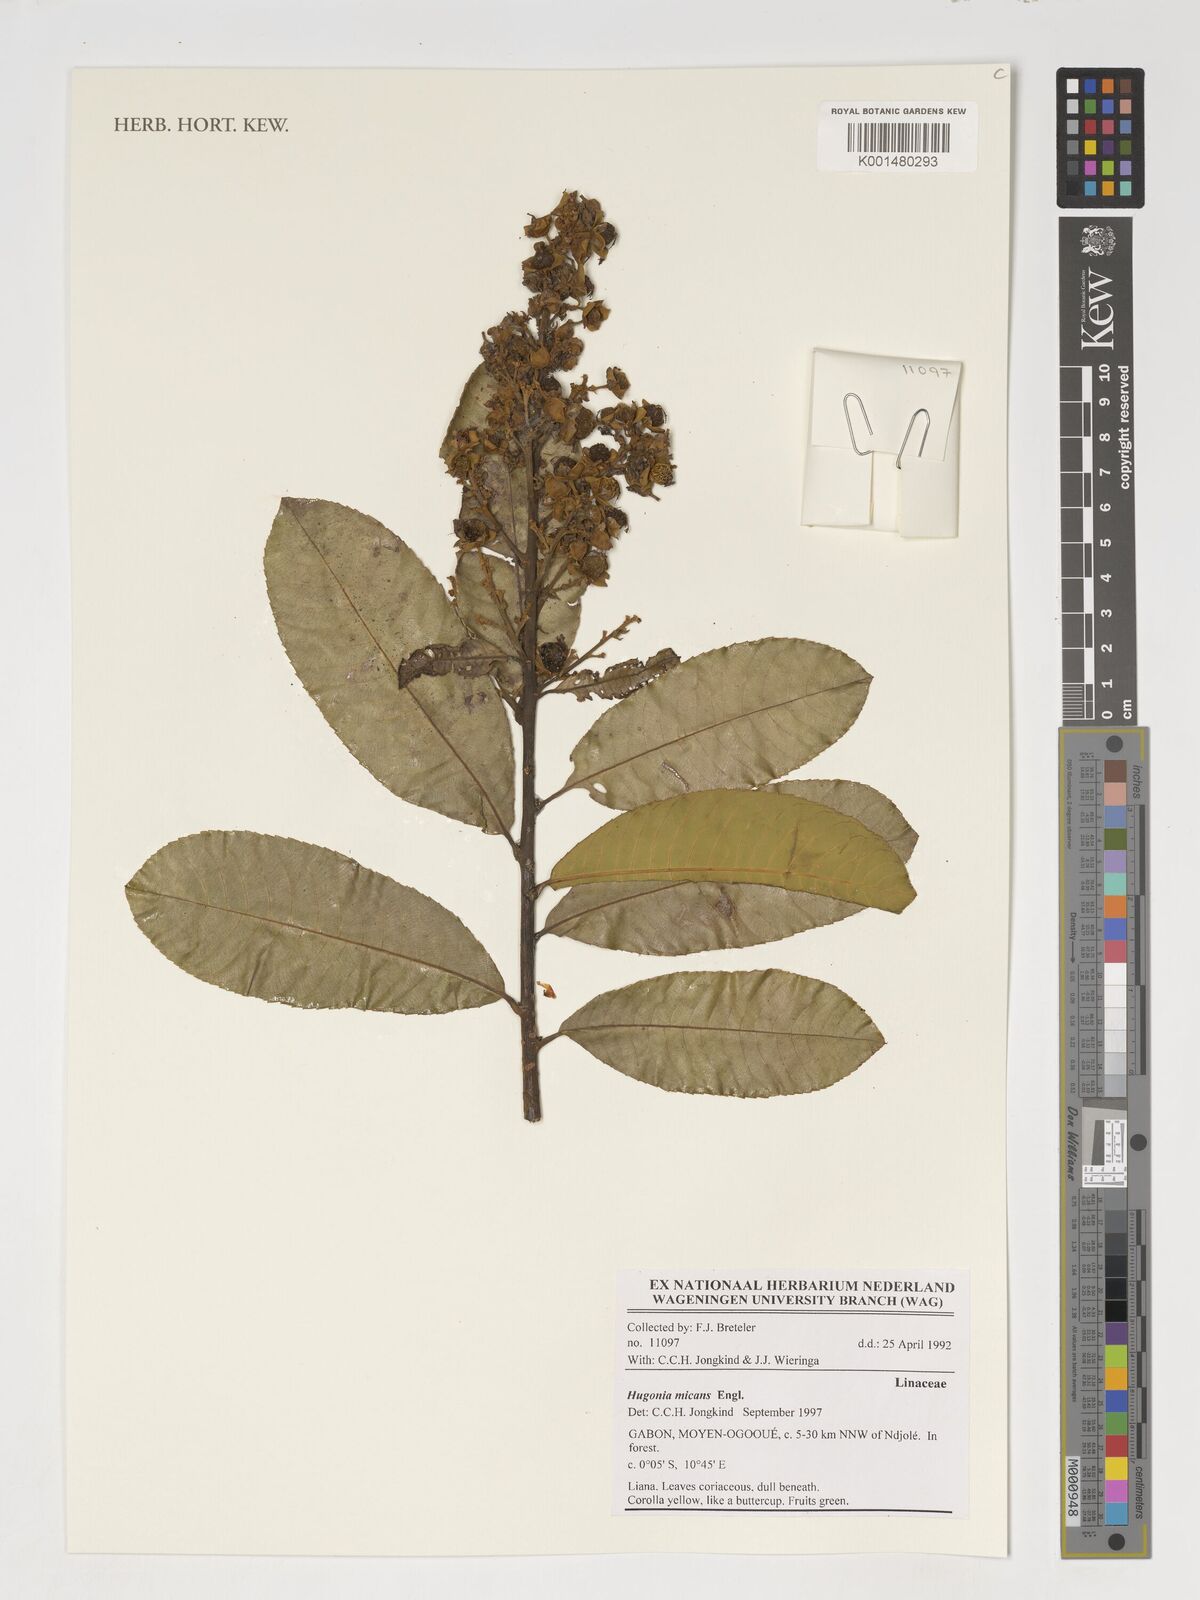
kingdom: Plantae
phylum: Tracheophyta
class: Magnoliopsida
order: Malpighiales
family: Linaceae
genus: Hugonia
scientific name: Hugonia micans
